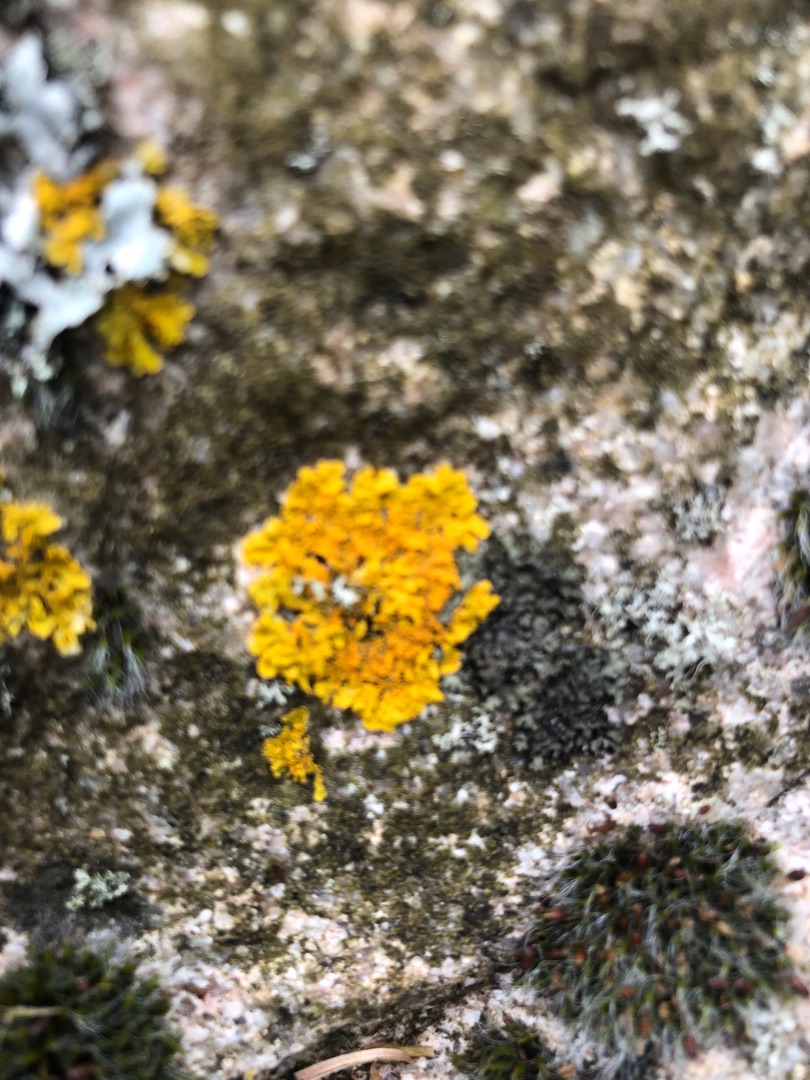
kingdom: Fungi
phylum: Ascomycota
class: Lecanoromycetes
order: Teloschistales
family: Teloschistaceae
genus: Xanthoria
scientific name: Xanthoria parietina
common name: Almindelig væggelav
